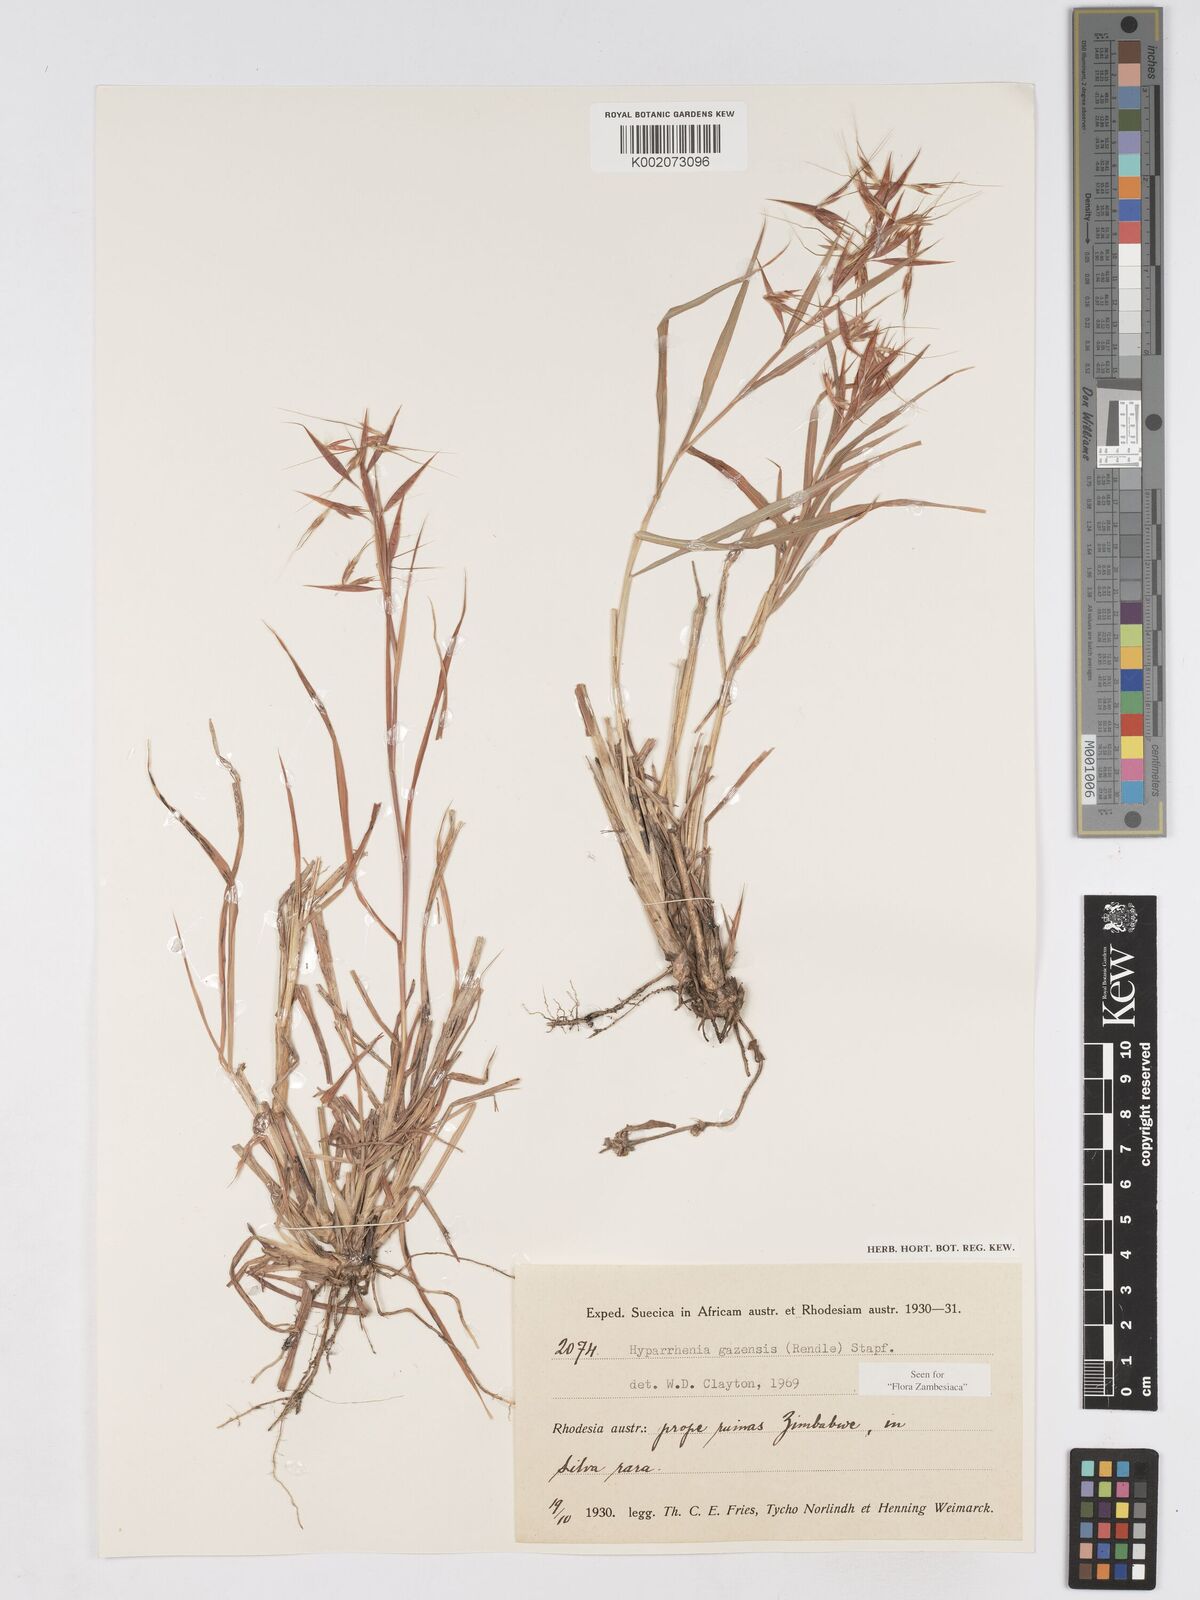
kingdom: Plantae
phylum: Tracheophyta
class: Liliopsida
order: Poales
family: Poaceae
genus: Hyparrhenia
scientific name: Hyparrhenia gazensis
